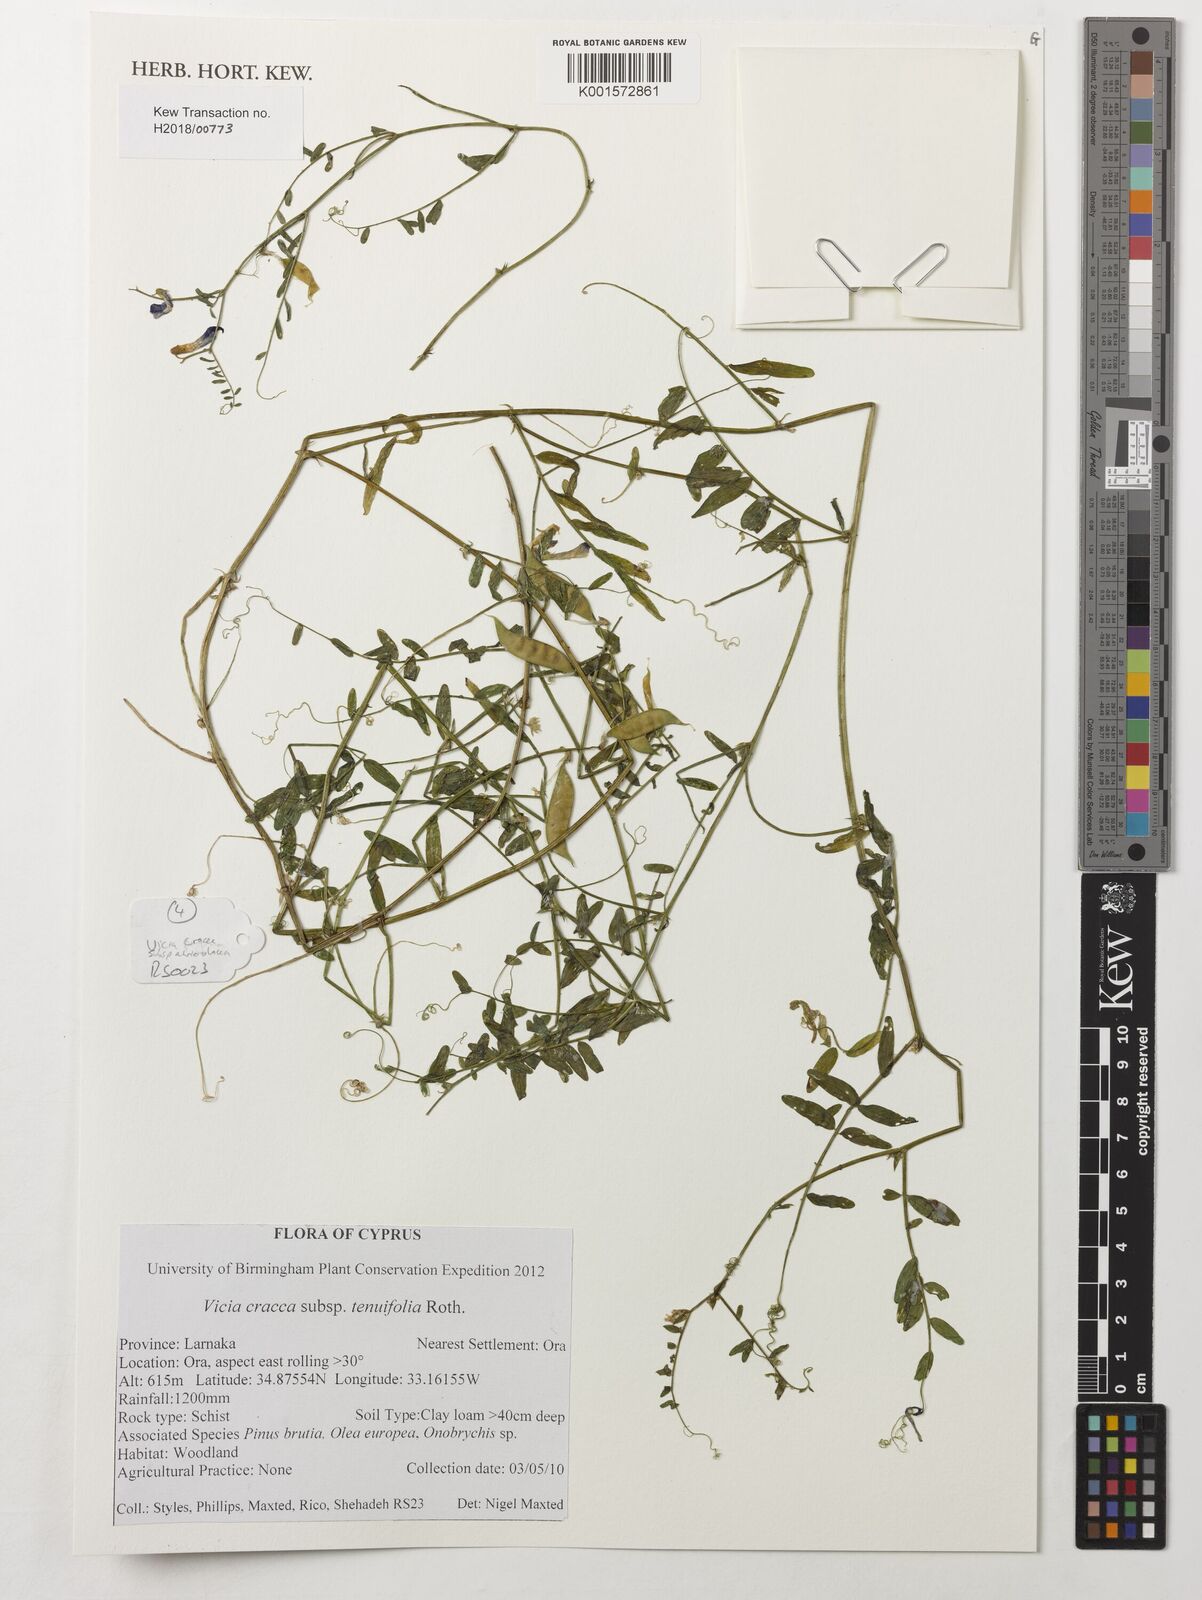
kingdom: Plantae
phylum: Tracheophyta
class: Magnoliopsida
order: Fabales
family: Fabaceae
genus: Vicia
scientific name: Vicia tenuifolia
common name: Fine-leaved vetch
